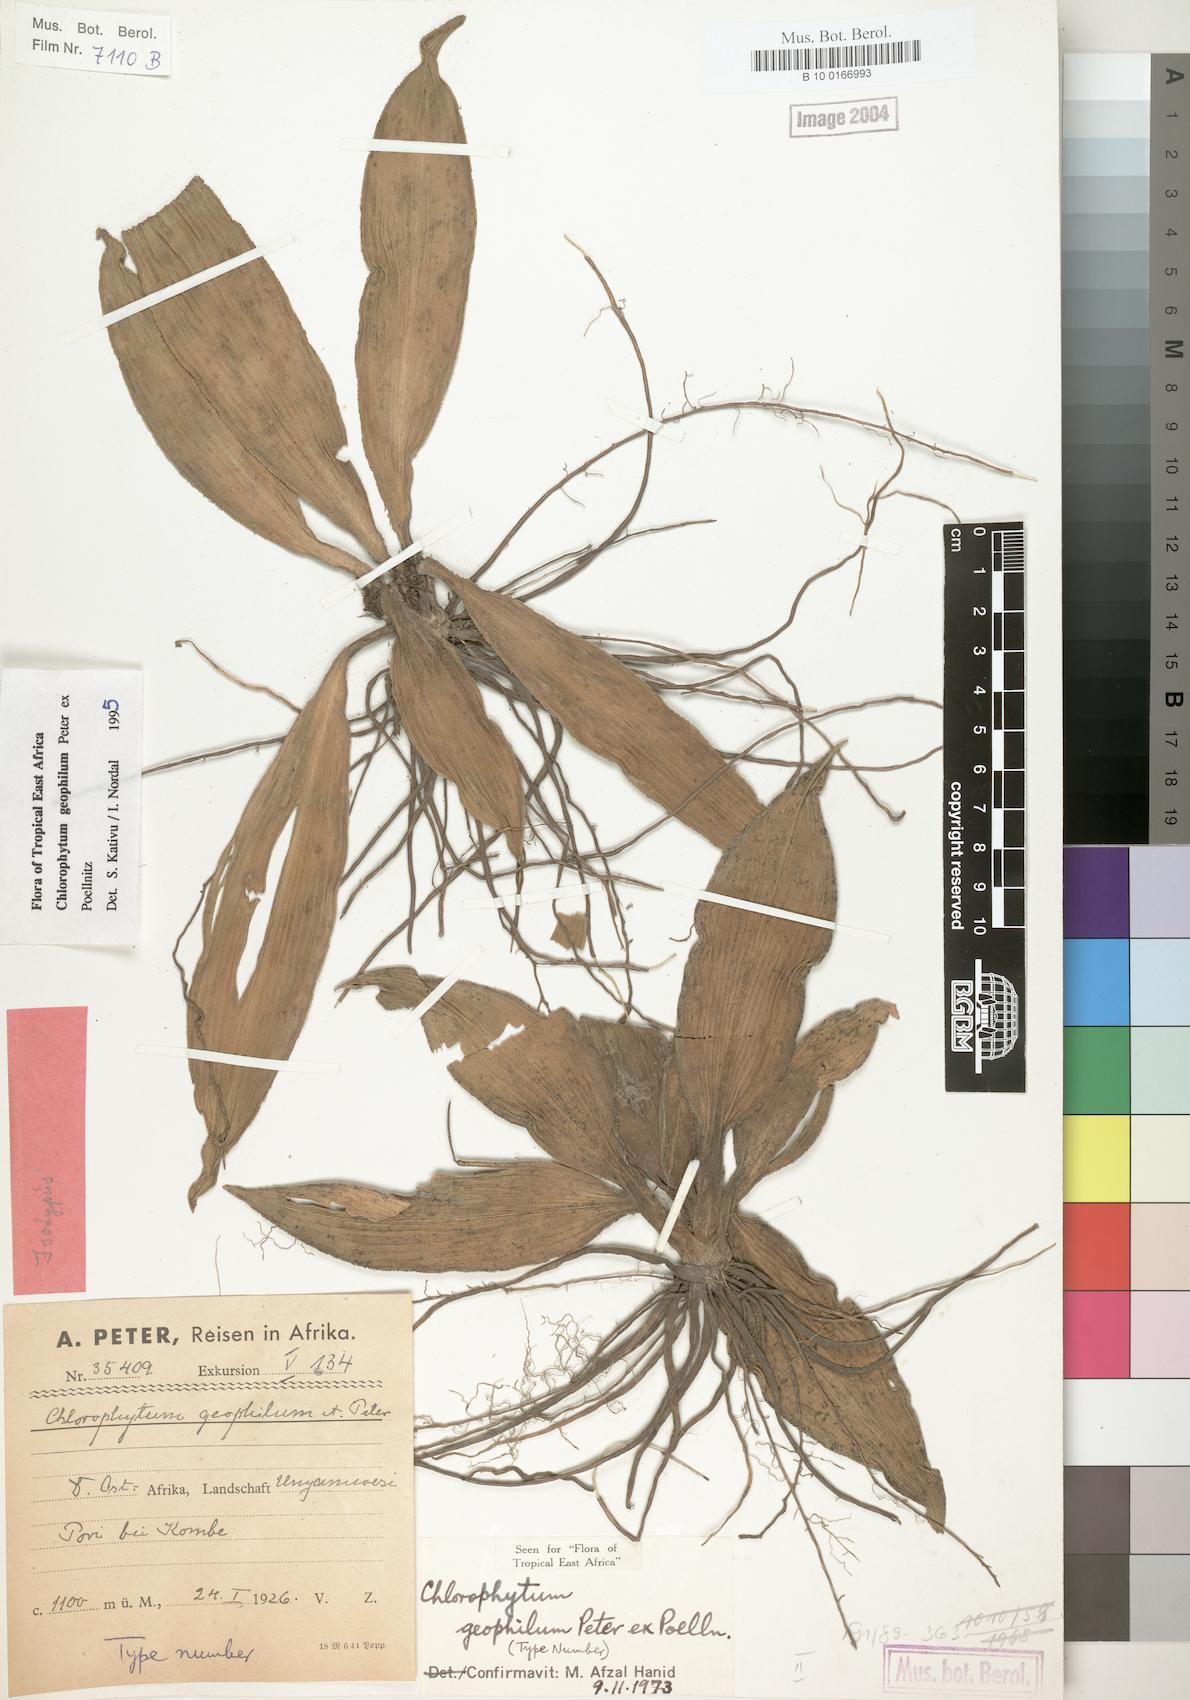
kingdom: Plantae
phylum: Tracheophyta
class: Liliopsida
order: Asparagales
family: Asparagaceae
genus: Chlorophytum
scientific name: Chlorophytum geophilum
